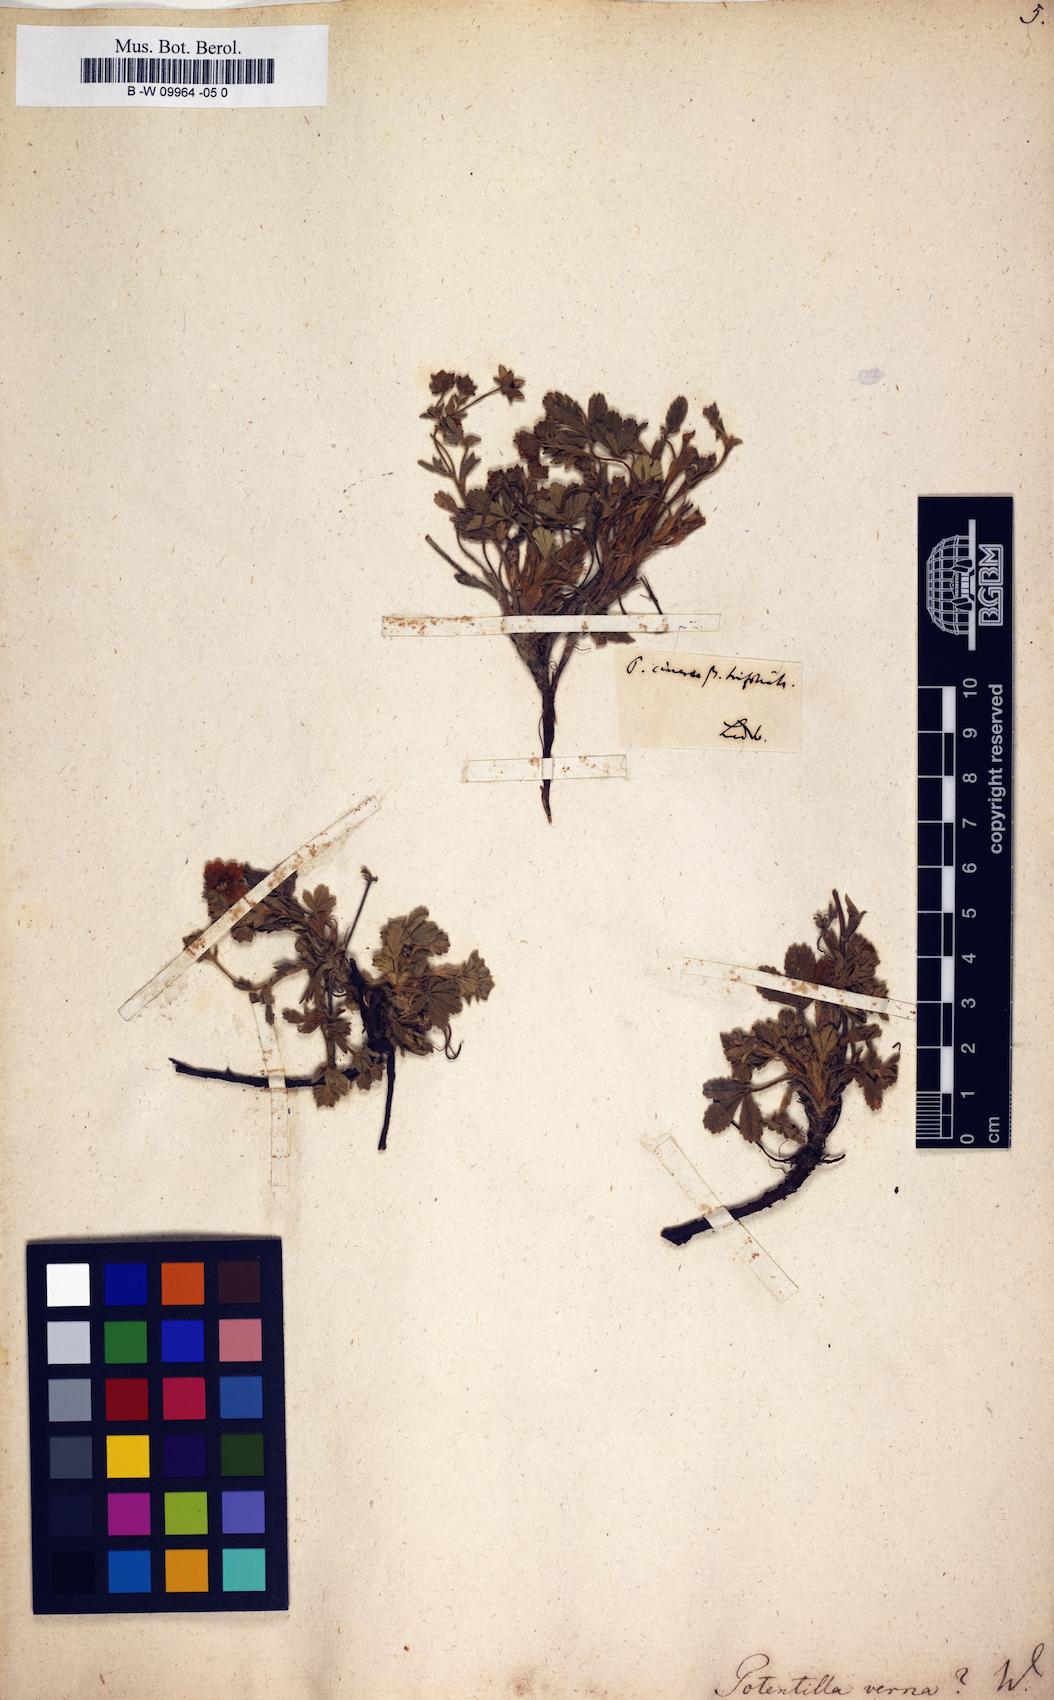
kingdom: Plantae
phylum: Tracheophyta
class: Magnoliopsida
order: Rosales
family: Rosaceae
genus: Potentilla
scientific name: Potentilla verna
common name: Spring cinquefoil
